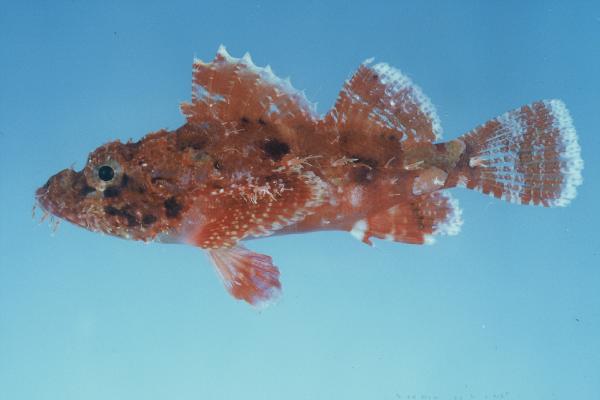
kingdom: Animalia
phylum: Chordata
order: Scorpaeniformes
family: Scorpaenidae
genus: Scorpaenopsis
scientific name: Scorpaenopsis papuensis
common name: Papuan scorpionfish
